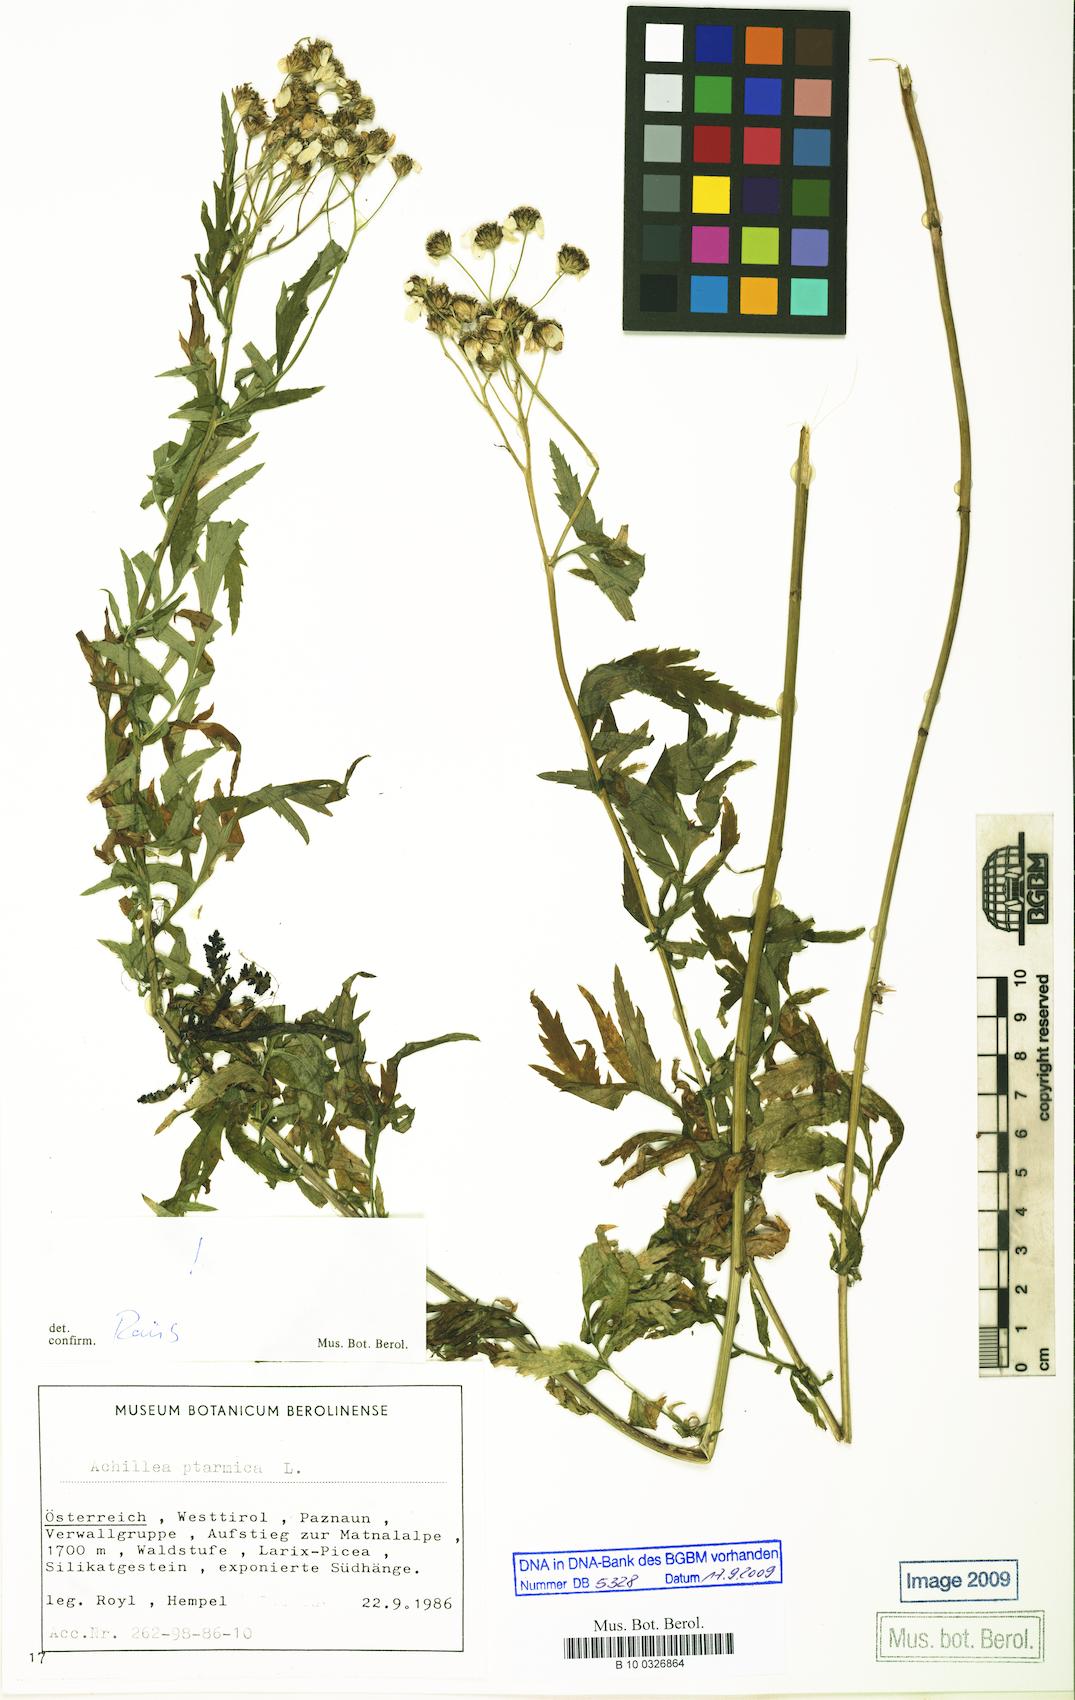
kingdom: Plantae
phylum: Tracheophyta
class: Magnoliopsida
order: Asterales
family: Asteraceae
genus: Achillea
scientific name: Achillea ptarmica
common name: Sneezeweed
